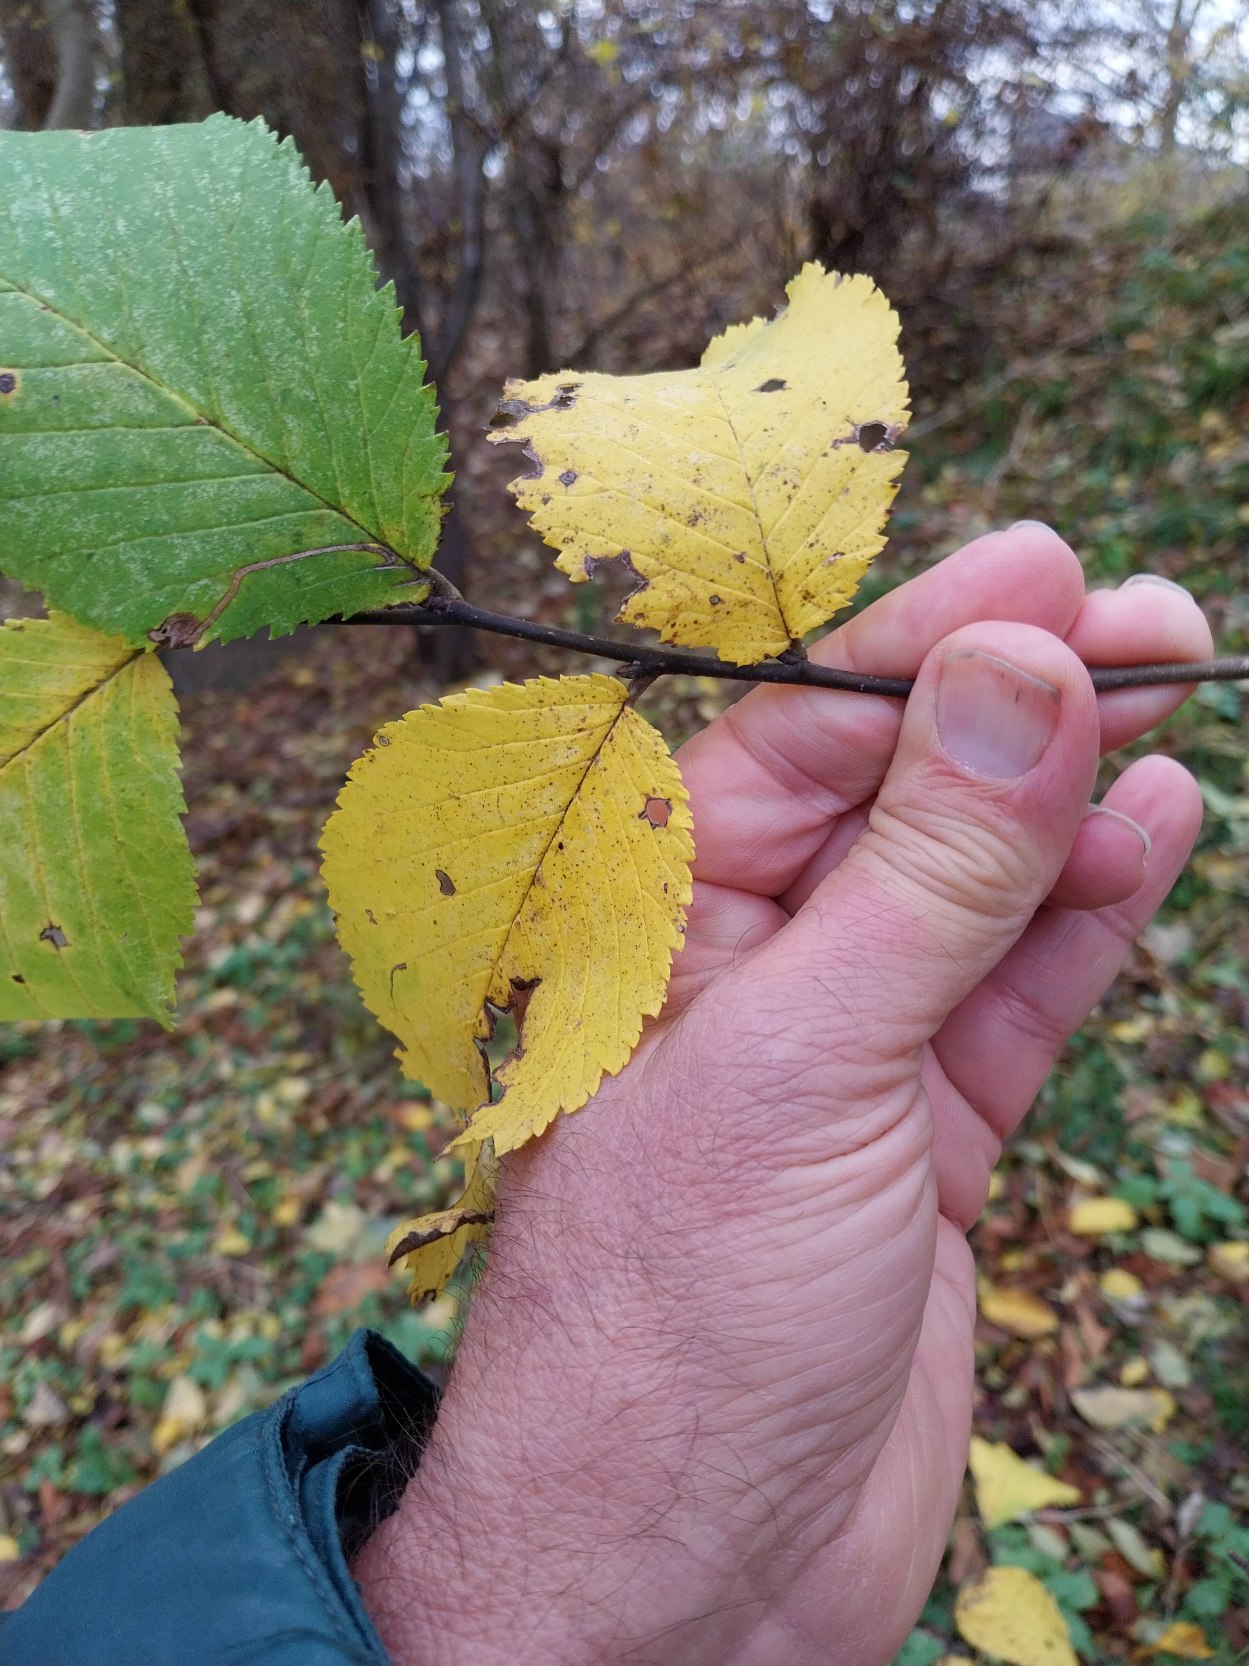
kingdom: Plantae
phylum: Tracheophyta
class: Magnoliopsida
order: Rosales
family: Ulmaceae
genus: Ulmus
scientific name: Ulmus glabra
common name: Skov-elm/storbladet elm
